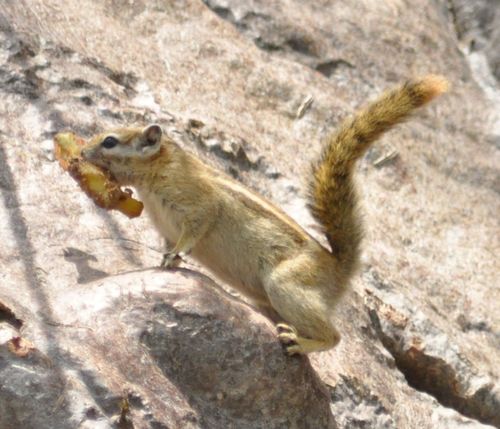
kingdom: Animalia
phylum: Chordata
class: Mammalia
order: Rodentia
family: Sciuridae
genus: Funisciurus
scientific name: Funisciurus congicus
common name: Congo rope squirrel
